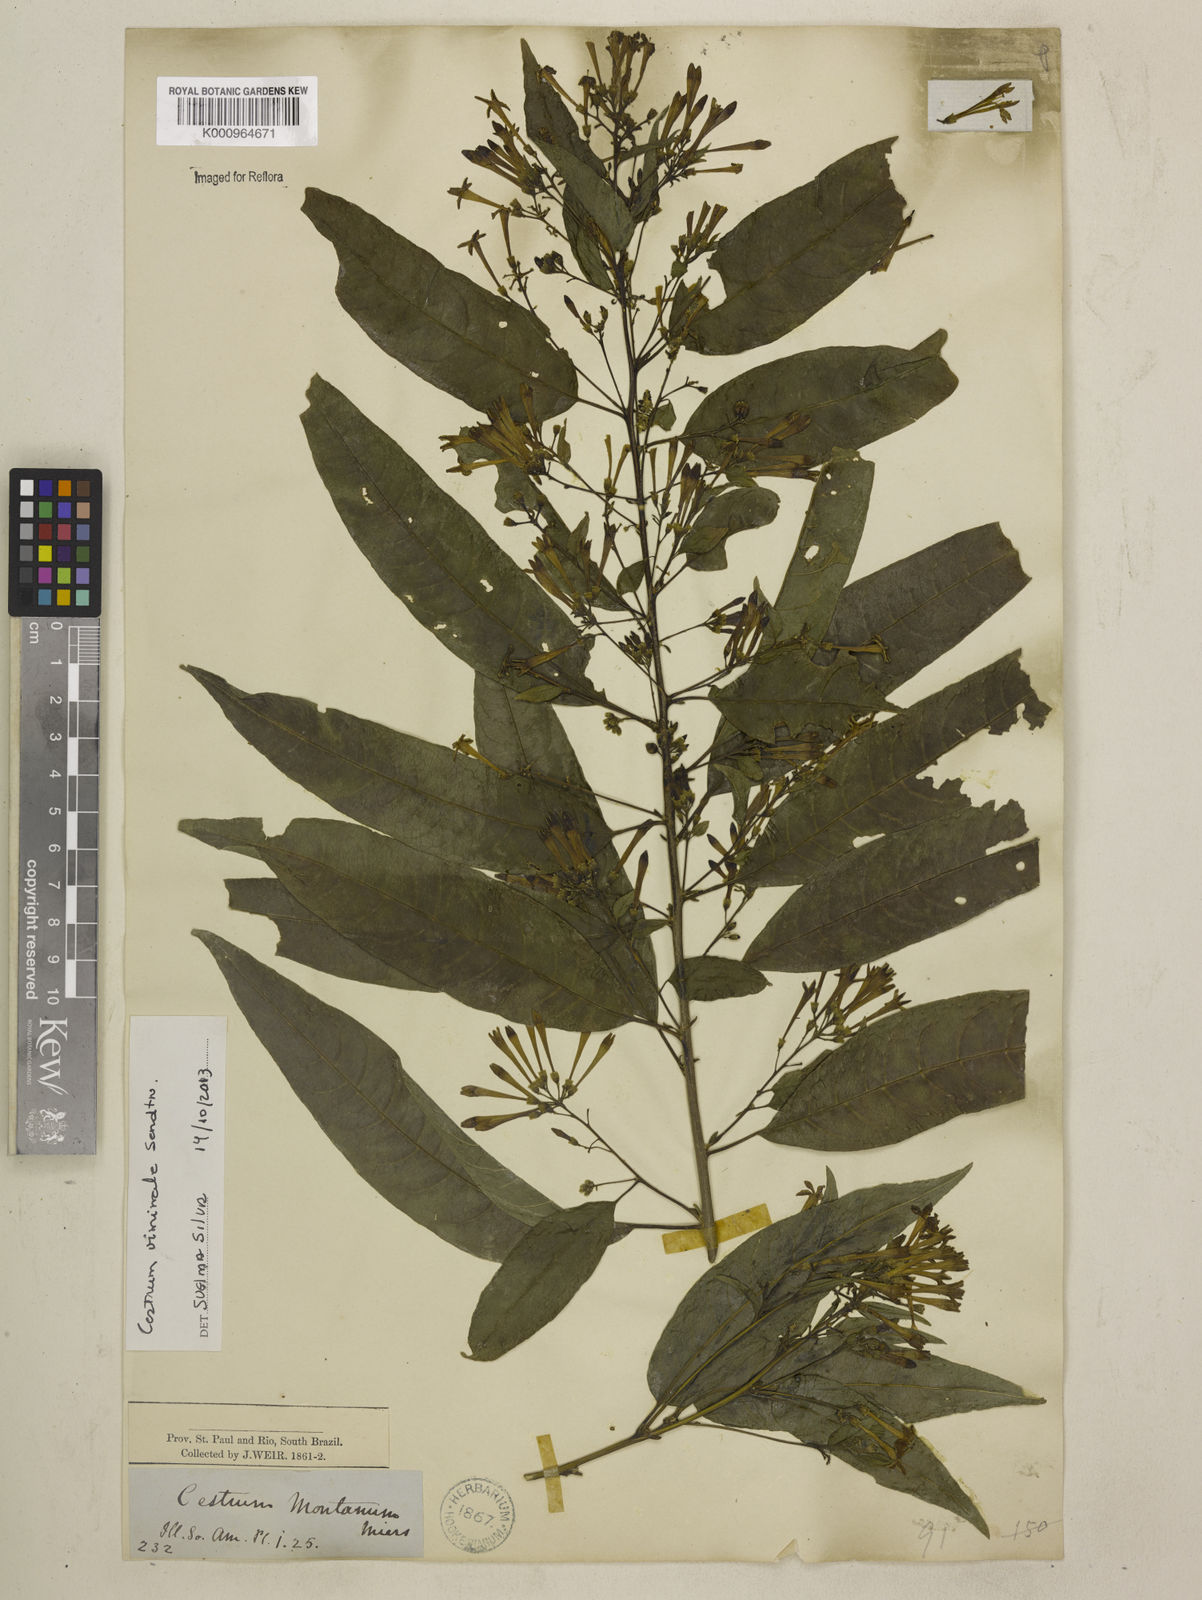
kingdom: Plantae
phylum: Tracheophyta
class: Magnoliopsida
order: Solanales
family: Solanaceae
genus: Cestrum
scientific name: Cestrum montanum
